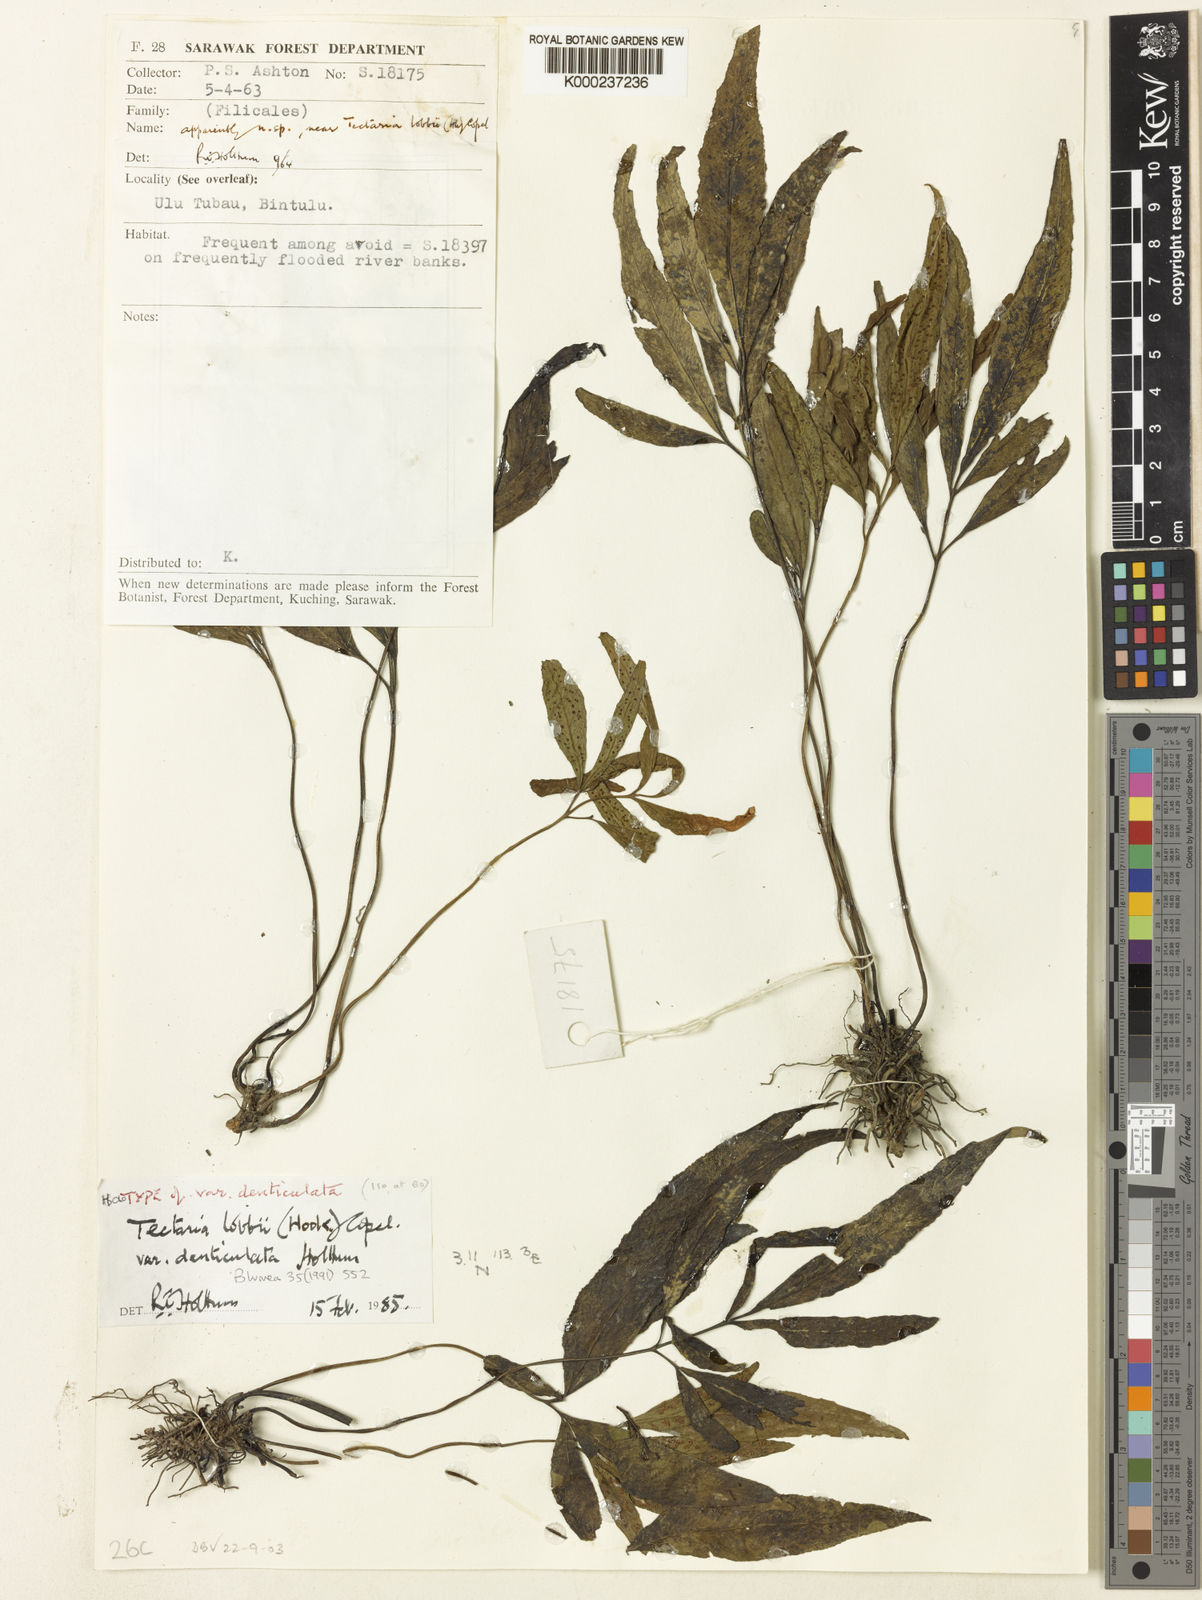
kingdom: Plantae
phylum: Tracheophyta
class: Polypodiopsida
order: Polypodiales
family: Tectariaceae
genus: Tectaria
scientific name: Tectaria lobbii
